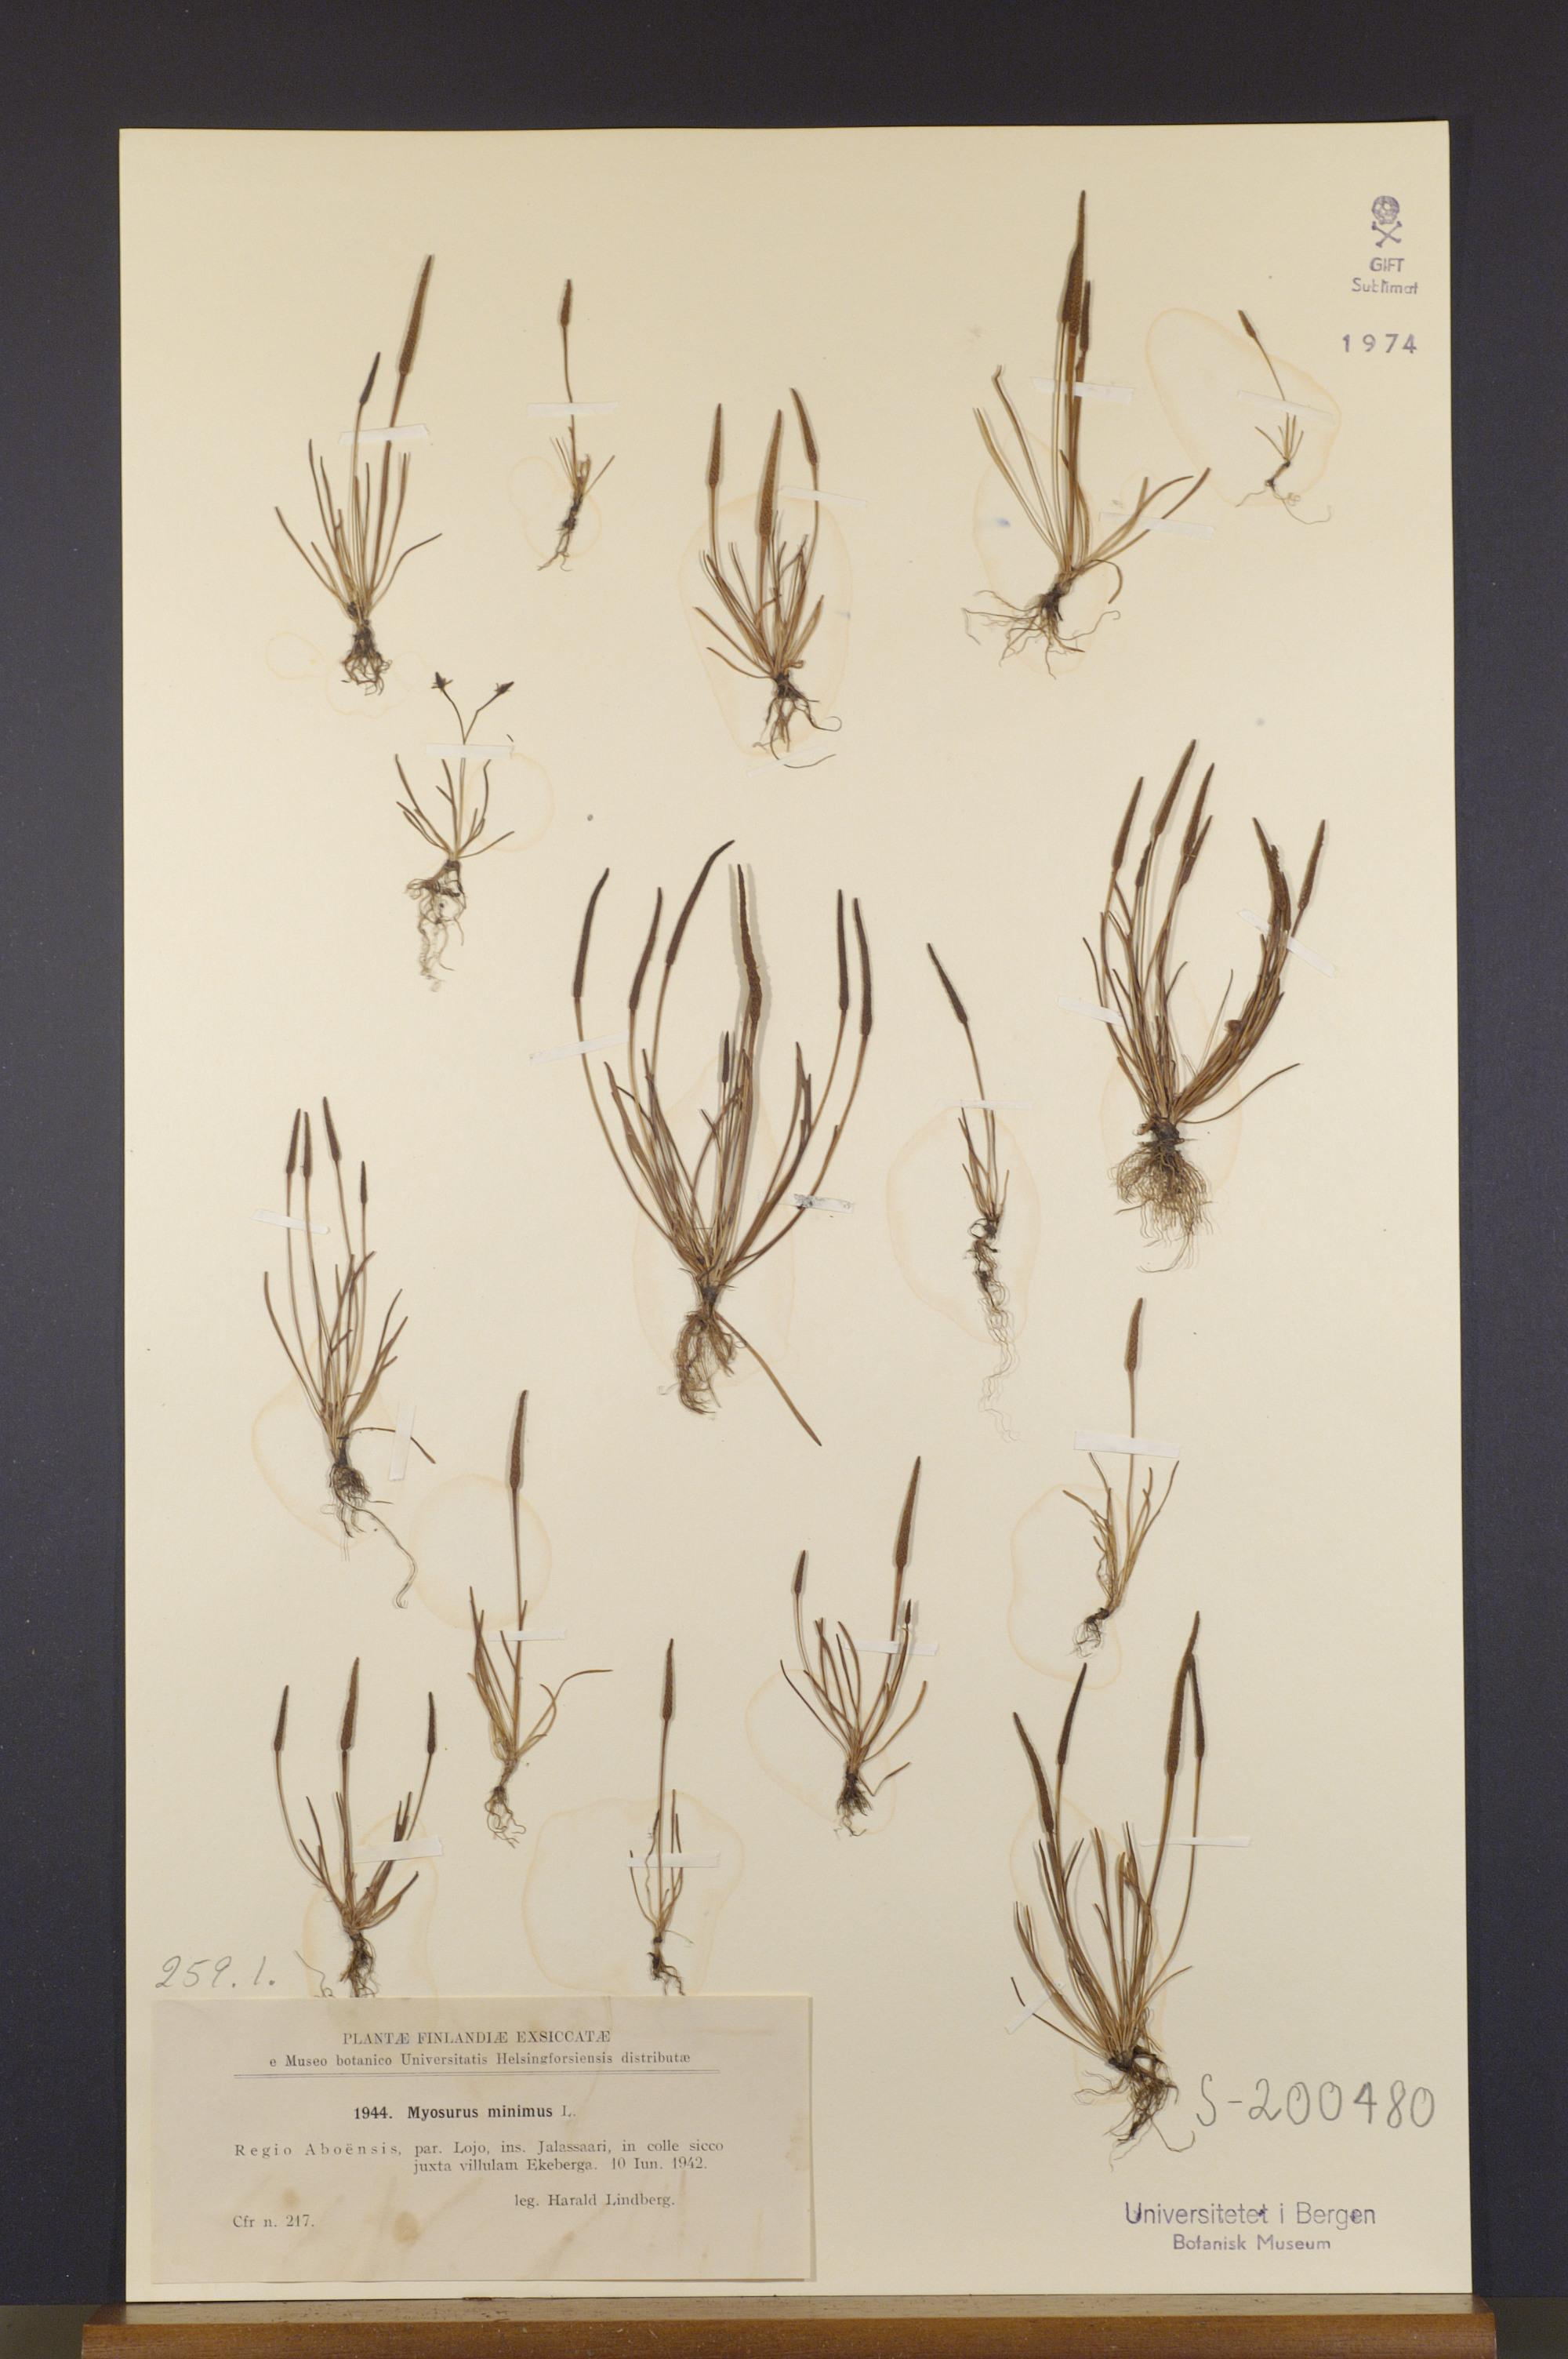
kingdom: Plantae
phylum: Tracheophyta
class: Magnoliopsida
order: Ranunculales
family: Ranunculaceae
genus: Myosurus
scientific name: Myosurus minimus
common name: Mousetail
